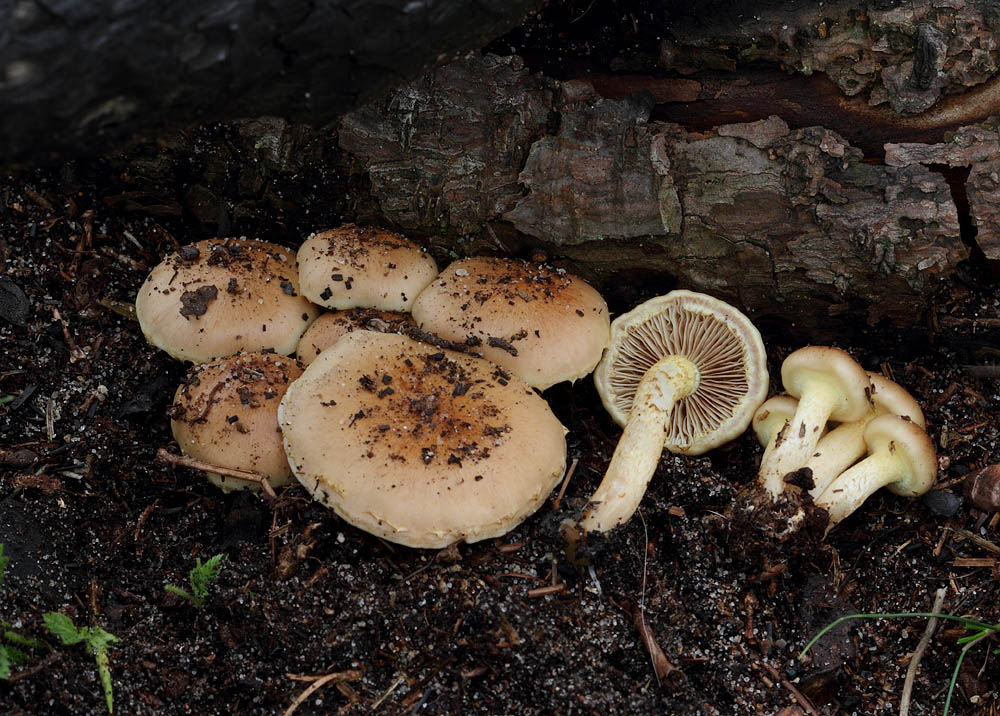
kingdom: Fungi
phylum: Basidiomycota
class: Agaricomycetes
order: Agaricales
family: Strophariaceae
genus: Pholiota
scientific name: Pholiota carbonaria
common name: kul-skælhat
